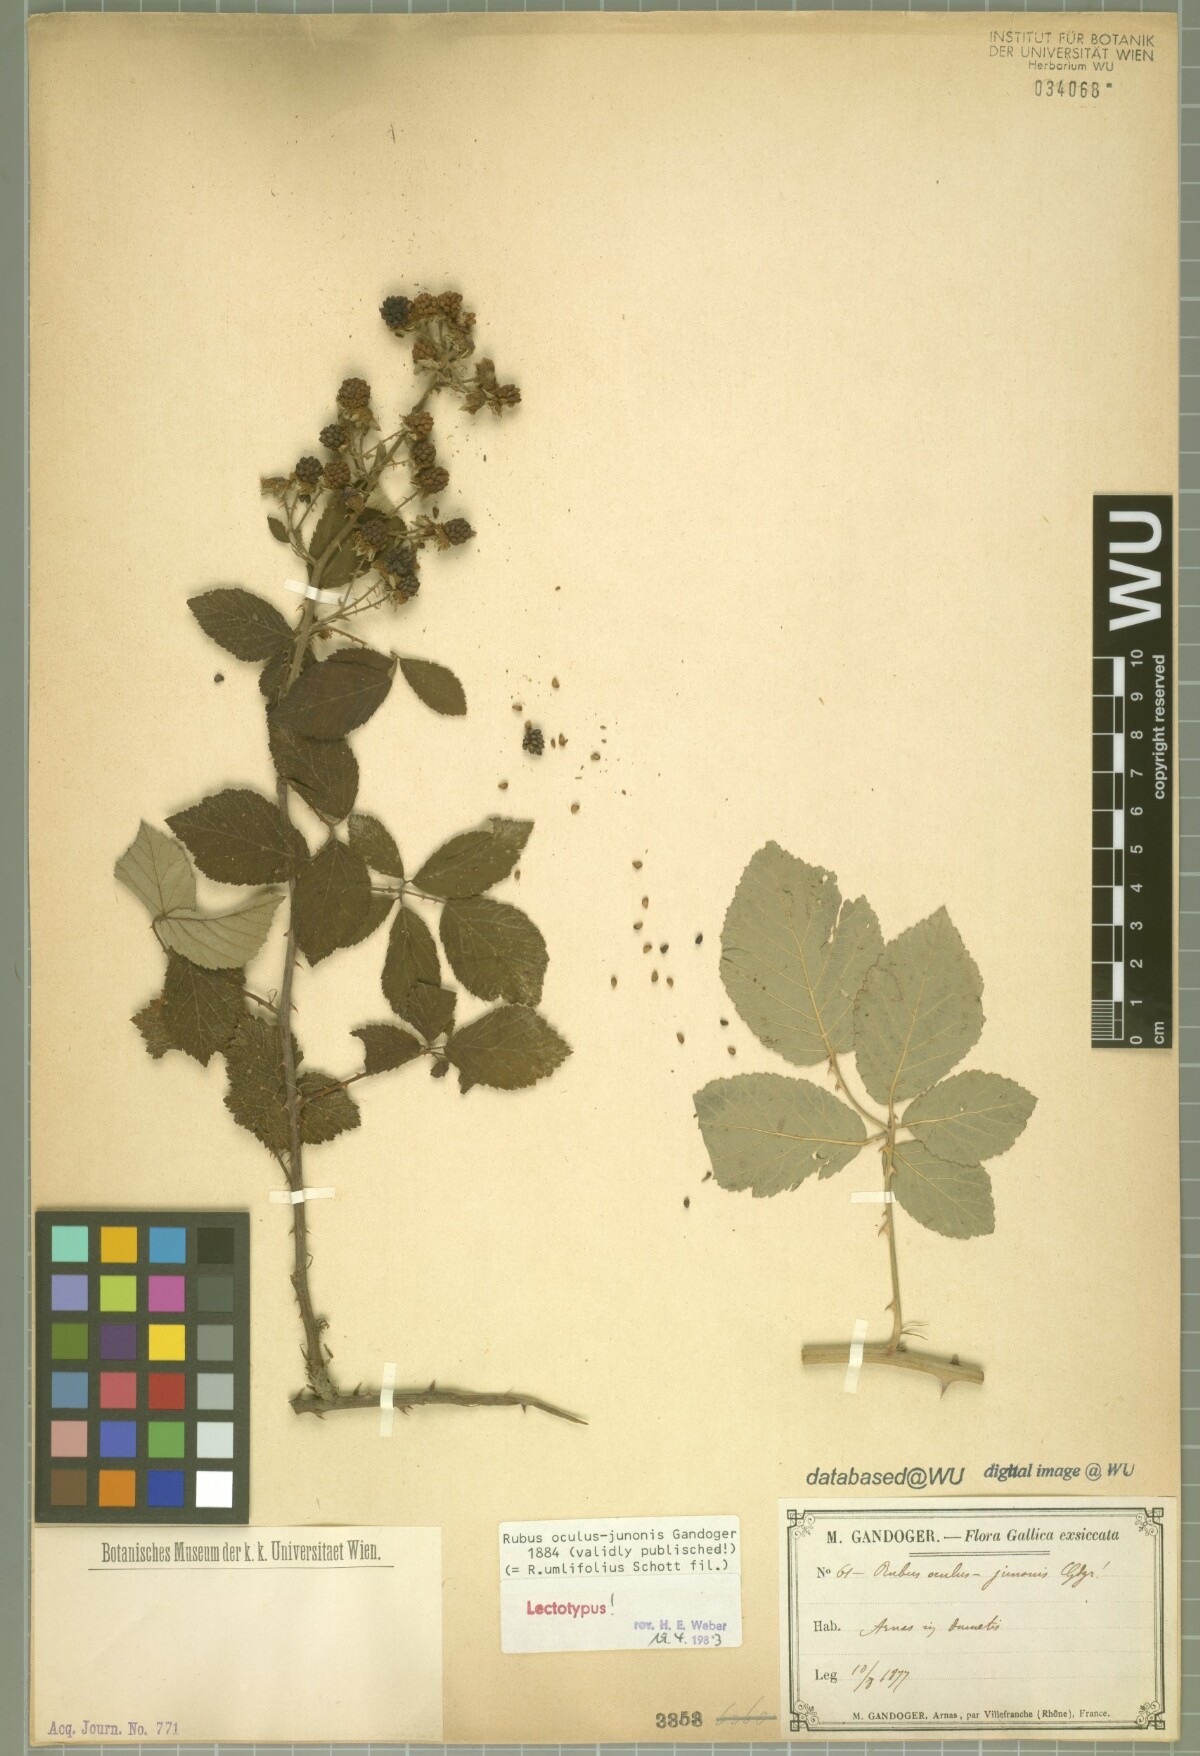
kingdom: Plantae
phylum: Tracheophyta
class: Magnoliopsida
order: Rosales
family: Rosaceae
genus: Rubus
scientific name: Rubus ulmifolius
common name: Elmleaf blackberry
